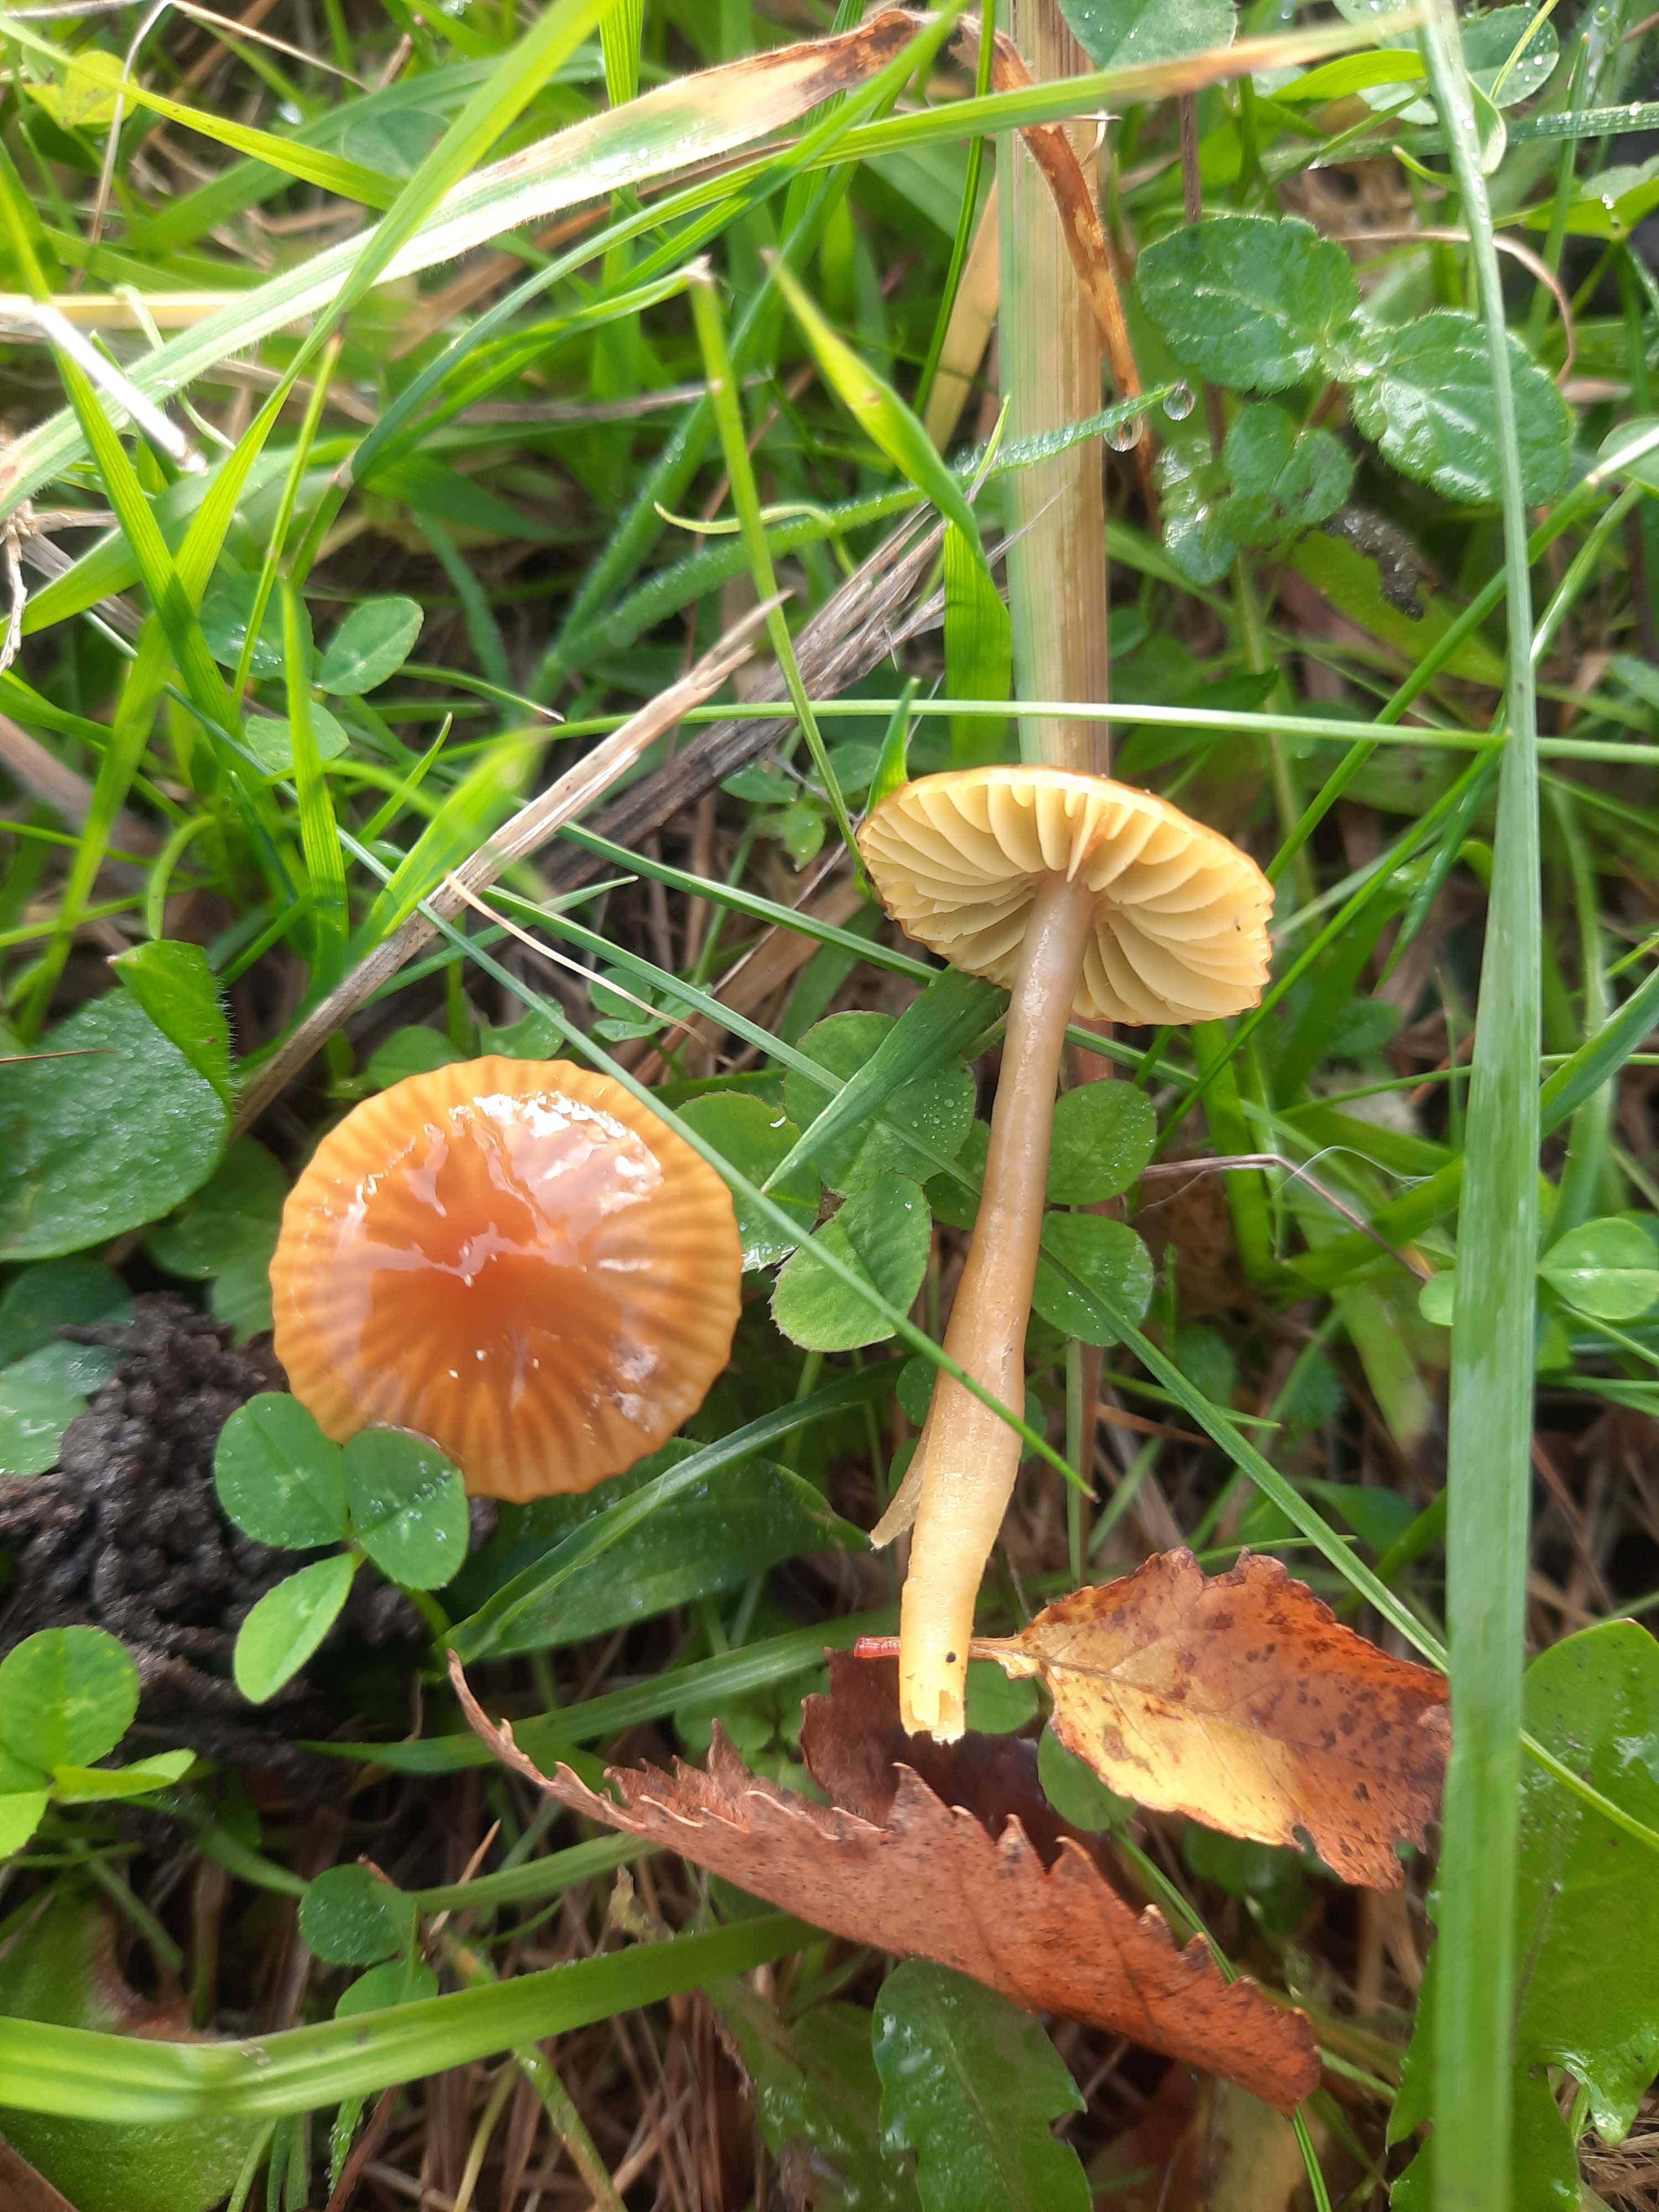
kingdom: Fungi
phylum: Basidiomycota
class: Agaricomycetes
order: Agaricales
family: Hygrophoraceae
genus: Gliophorus
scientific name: Gliophorus psittacinus
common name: papegøje-vokshat
